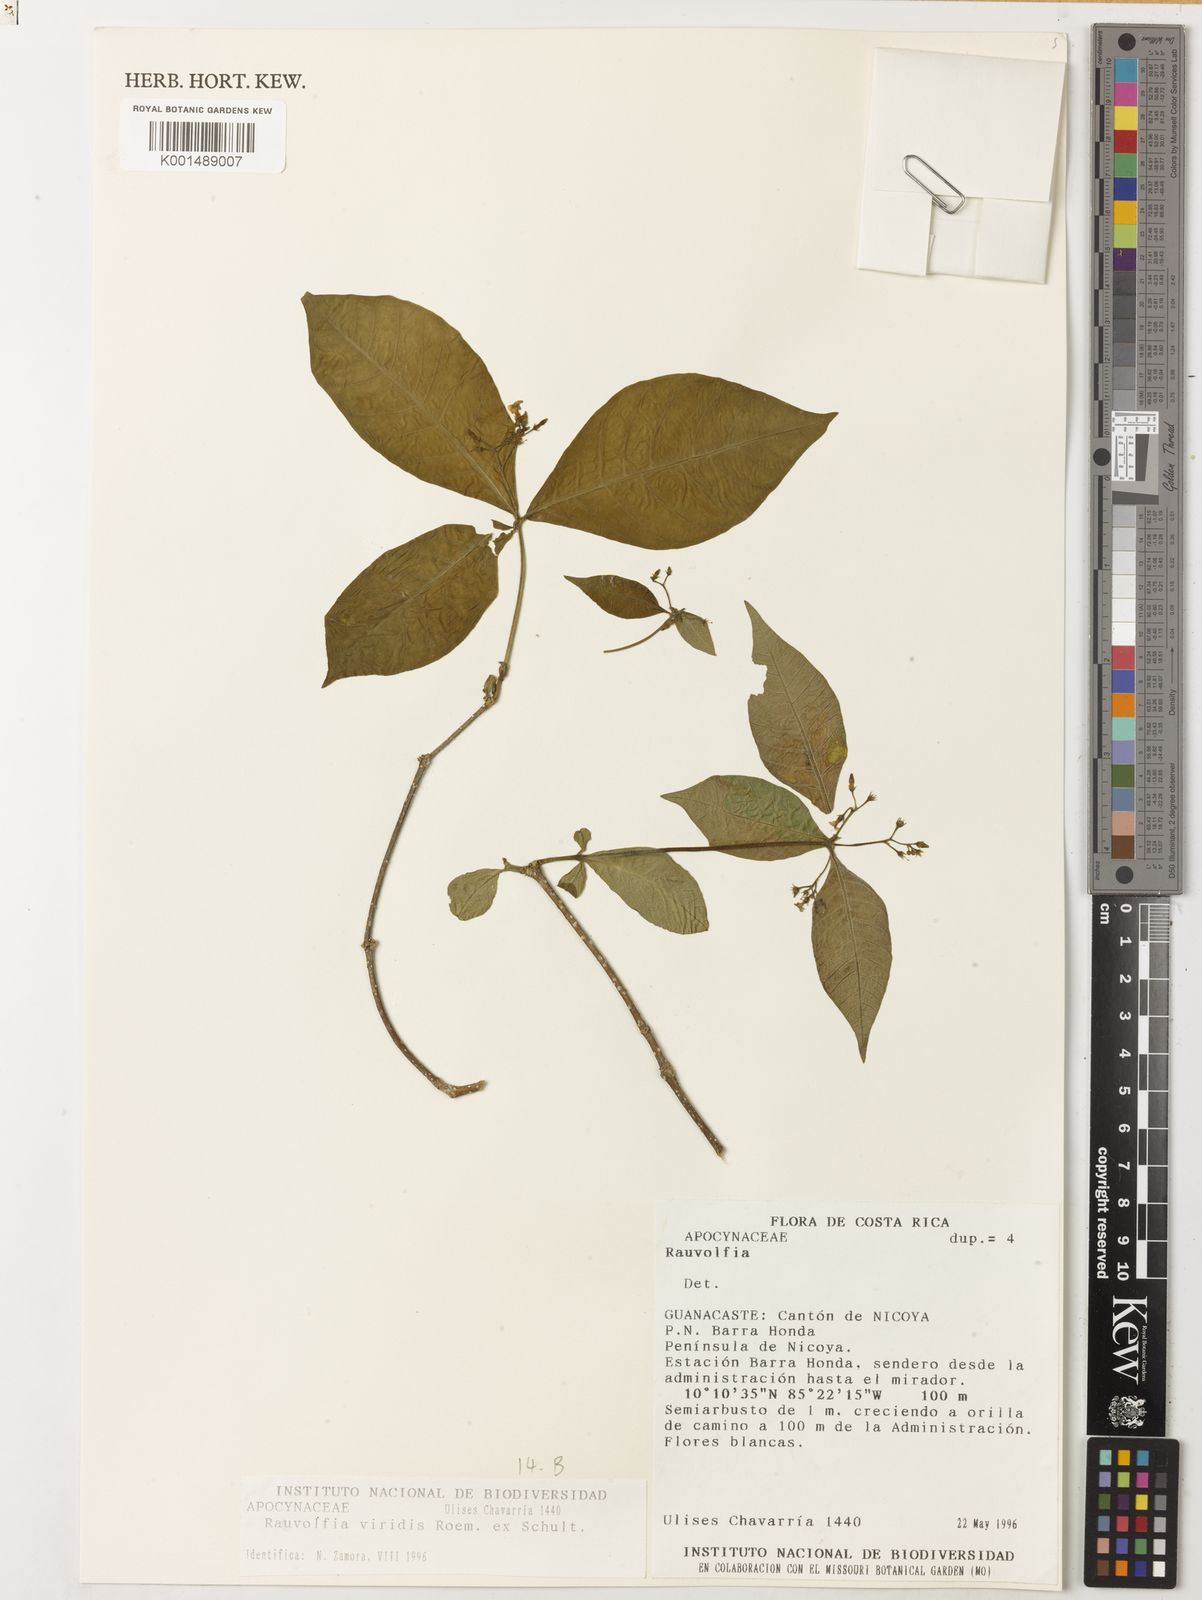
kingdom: Plantae
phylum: Tracheophyta
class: Magnoliopsida
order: Gentianales
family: Apocynaceae
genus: Rauvolfia
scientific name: Rauvolfia viridis
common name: Bellyache
